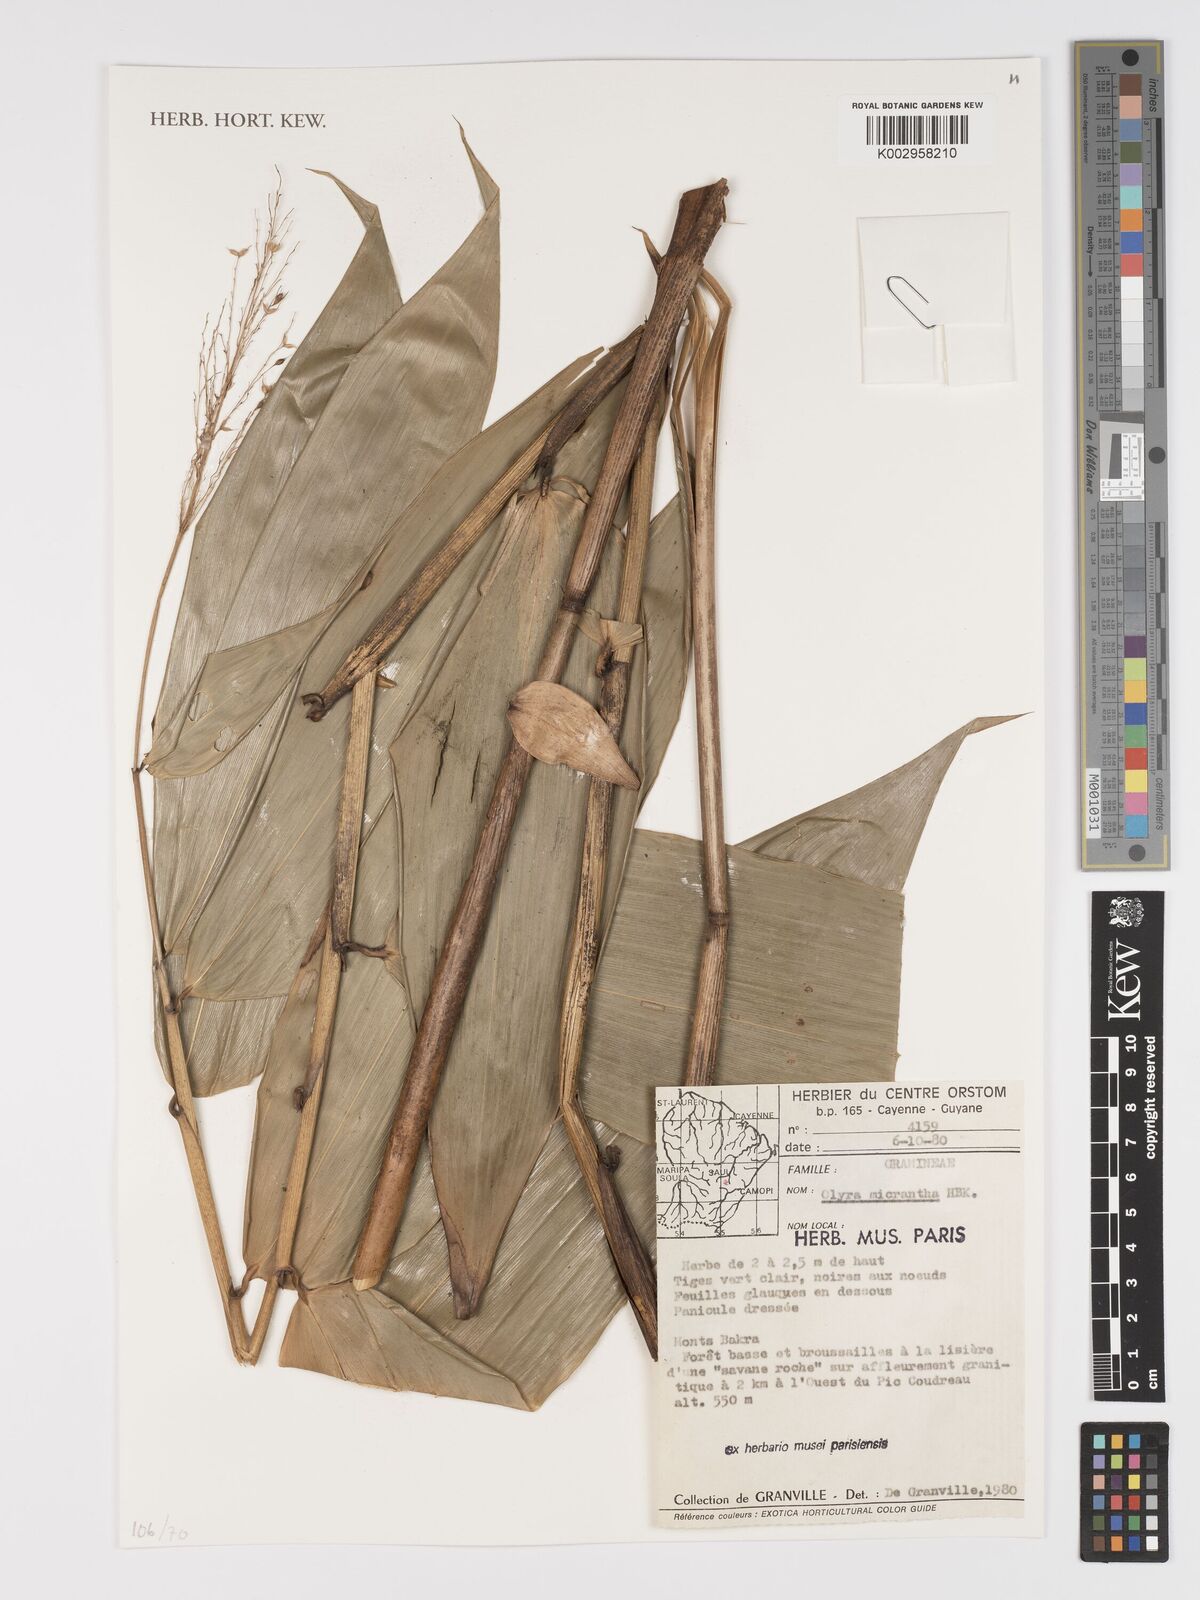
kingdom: Plantae
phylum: Tracheophyta
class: Liliopsida
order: Poales
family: Poaceae
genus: Taquara
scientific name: Taquara micrantha
